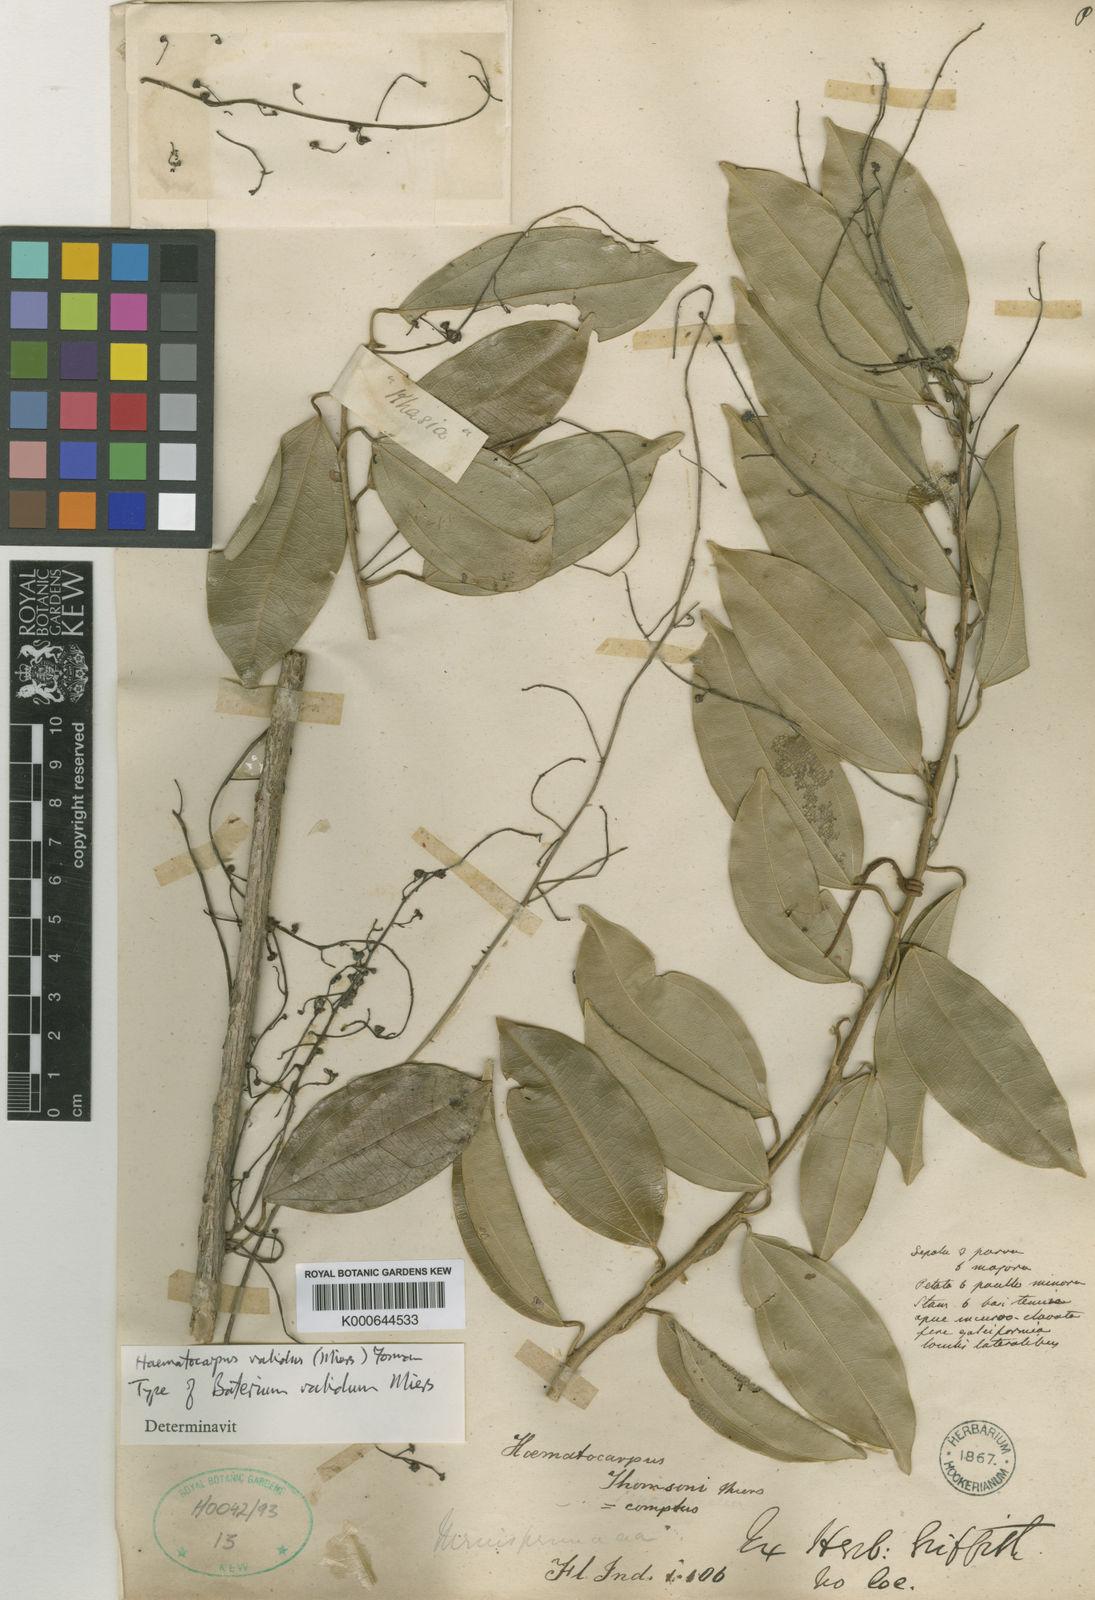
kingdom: Plantae
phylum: Tracheophyta
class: Magnoliopsida
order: Ranunculales
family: Menispermaceae
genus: Haematocarpus
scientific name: Haematocarpus validus
